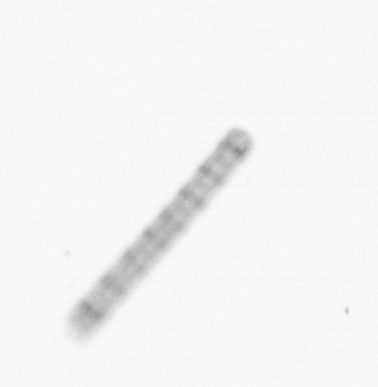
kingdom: Chromista
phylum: Ochrophyta
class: Bacillariophyceae
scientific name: Bacillariophyceae
